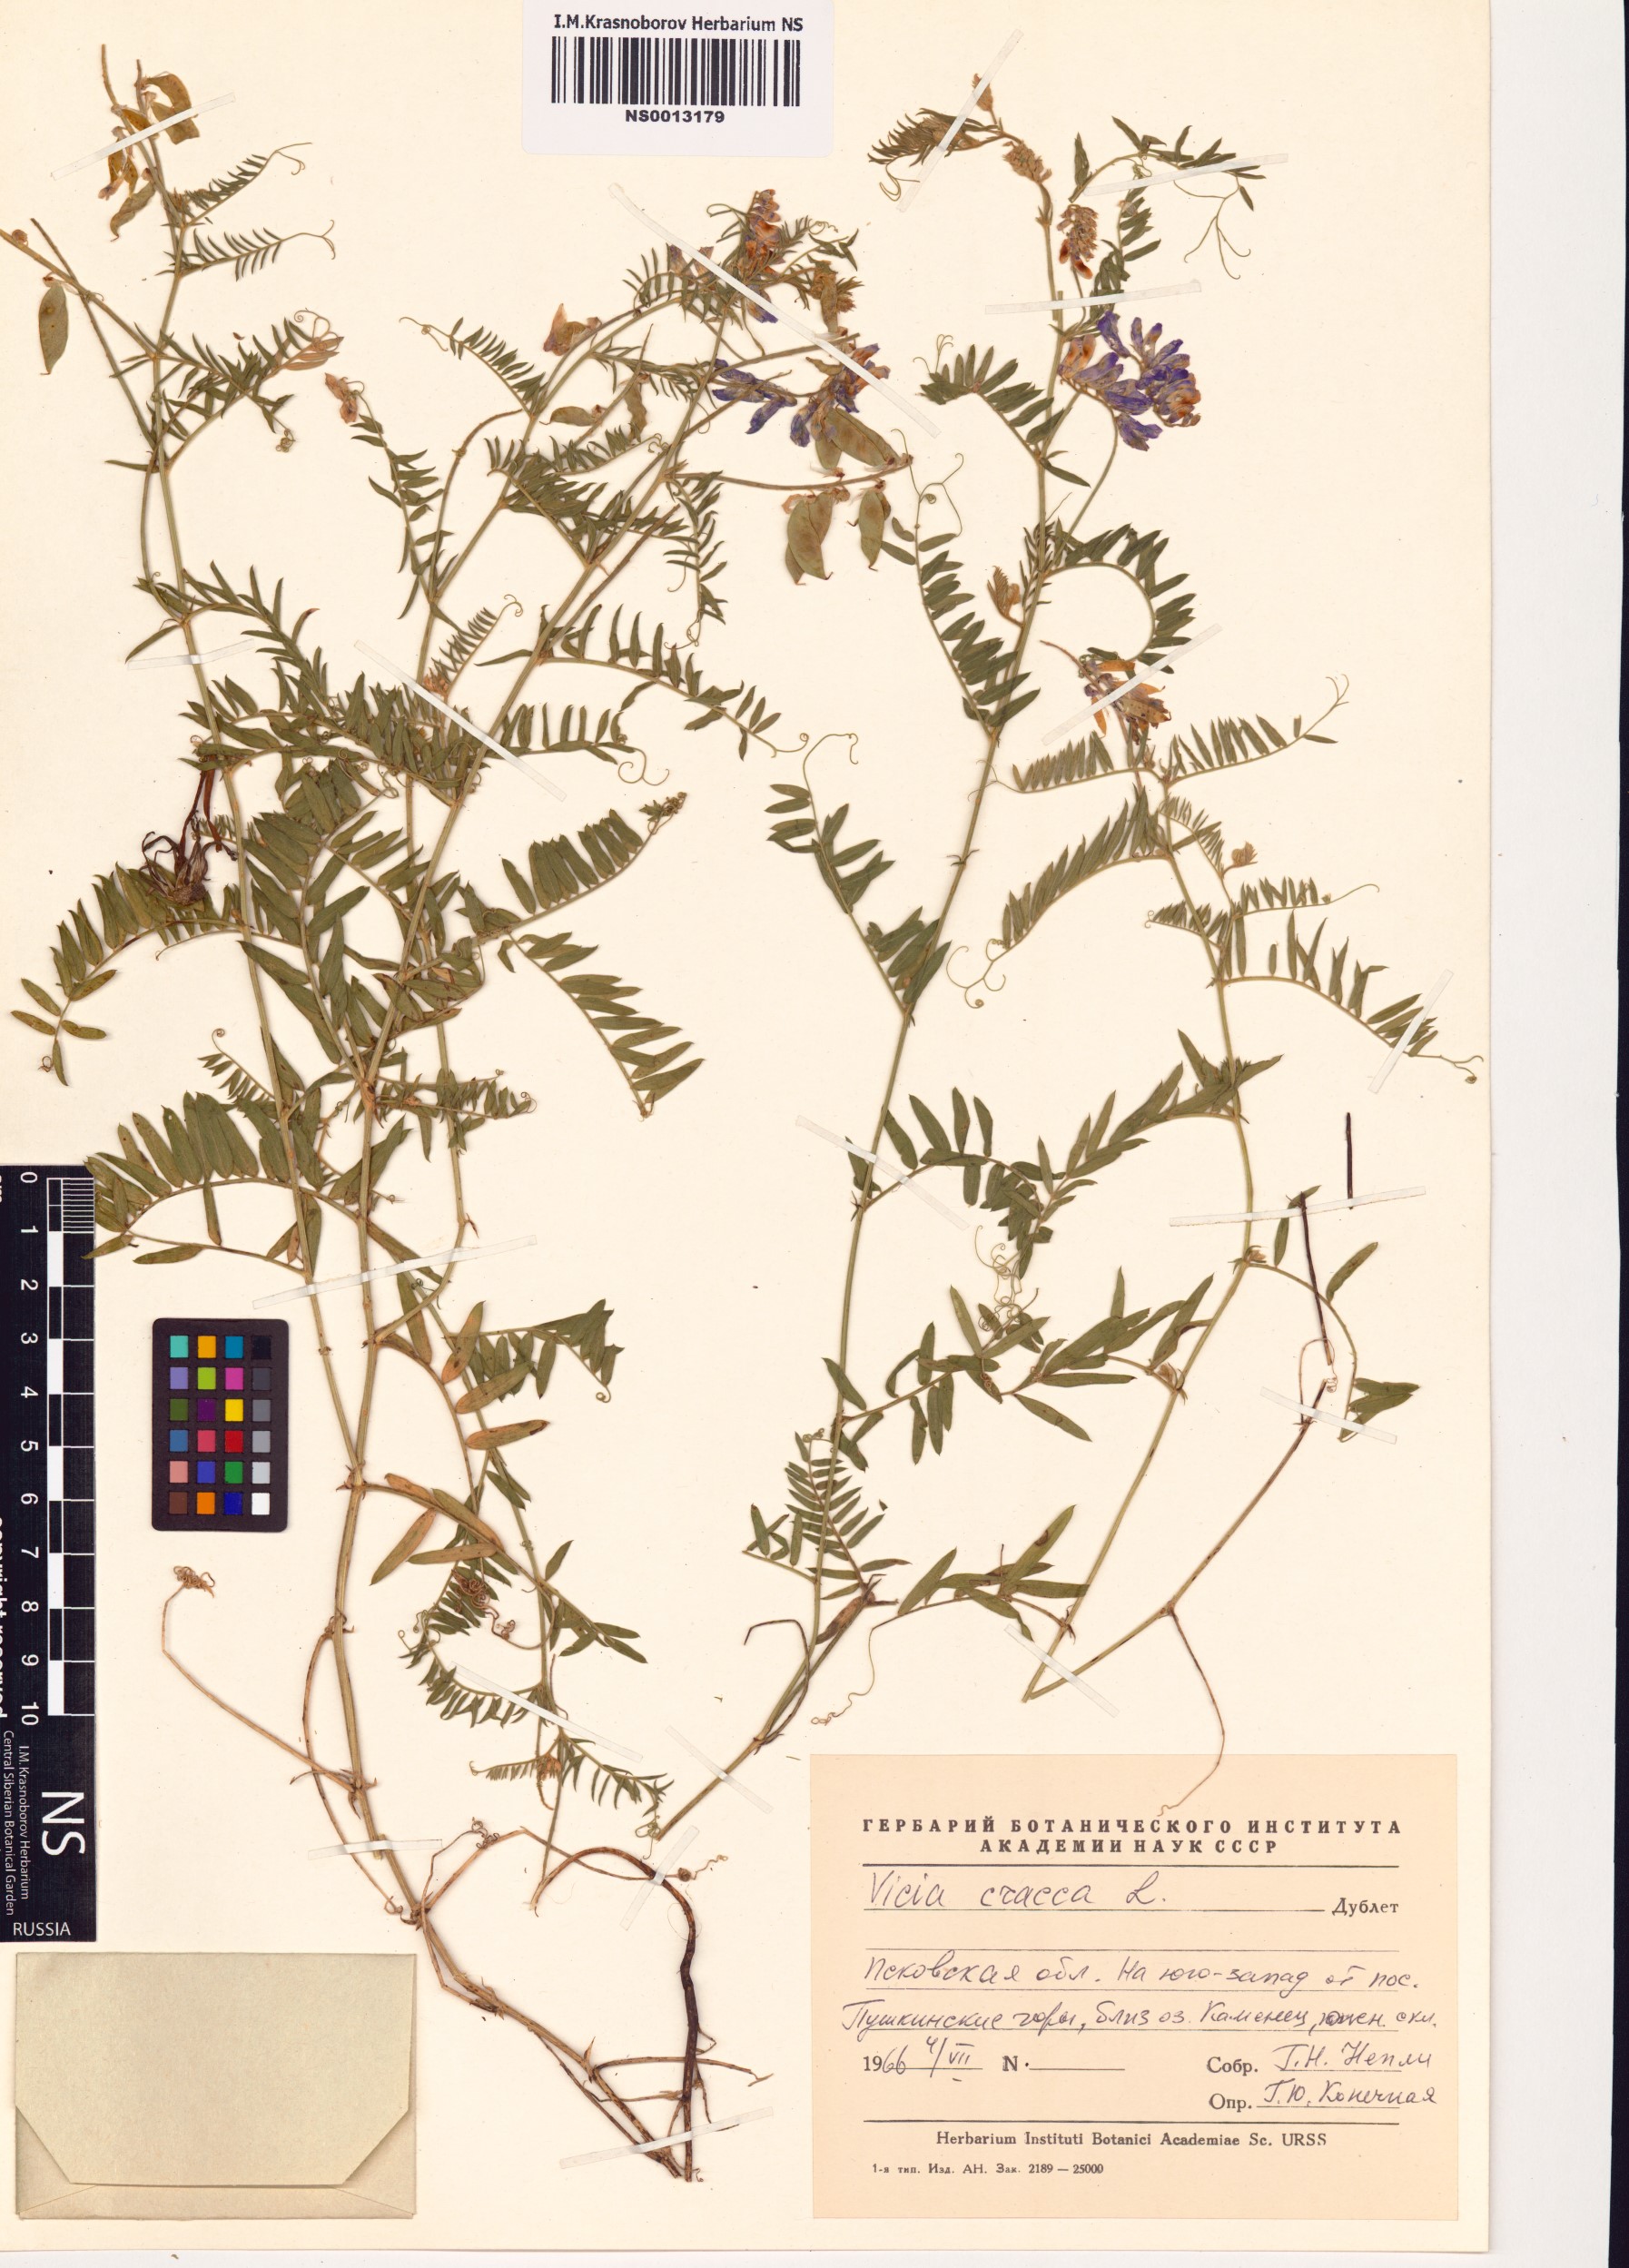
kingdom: Plantae
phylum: Tracheophyta
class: Magnoliopsida
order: Fabales
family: Fabaceae
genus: Vicia
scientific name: Vicia cracca
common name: Bird vetch
